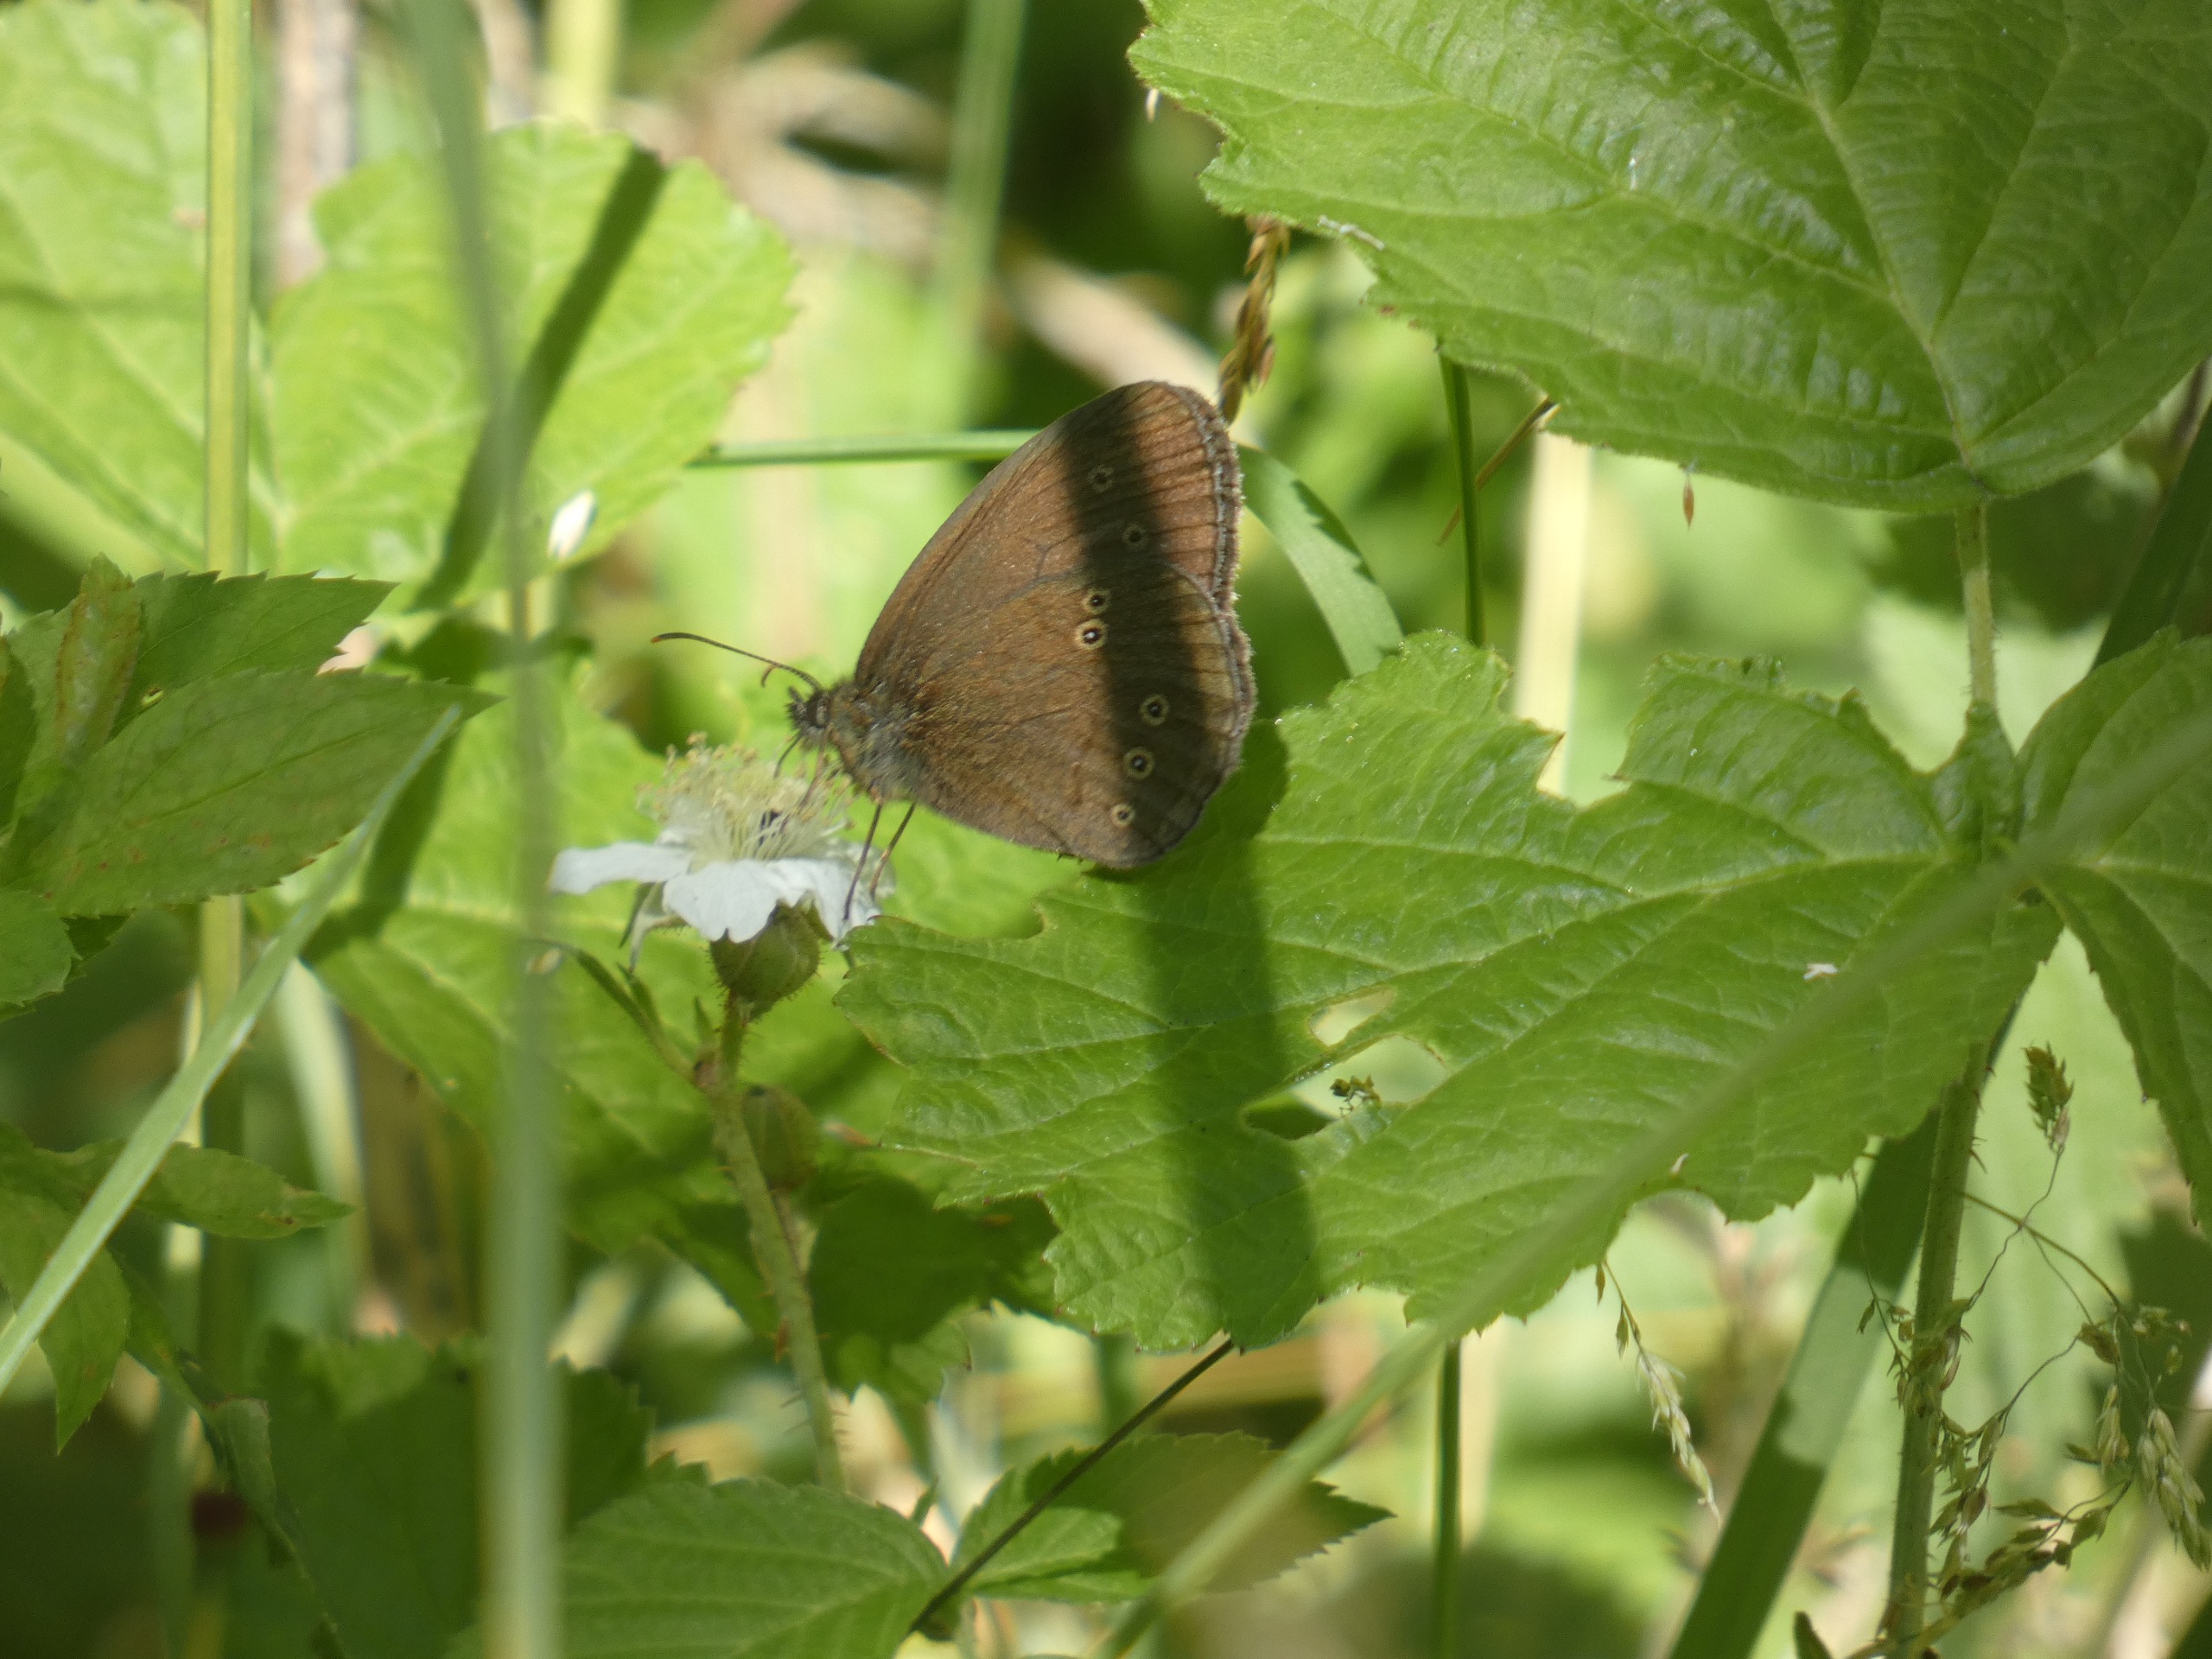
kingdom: Animalia
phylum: Arthropoda
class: Insecta
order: Lepidoptera
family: Nymphalidae
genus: Aphantopus
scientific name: Aphantopus hyperantus
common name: Engrandøje
